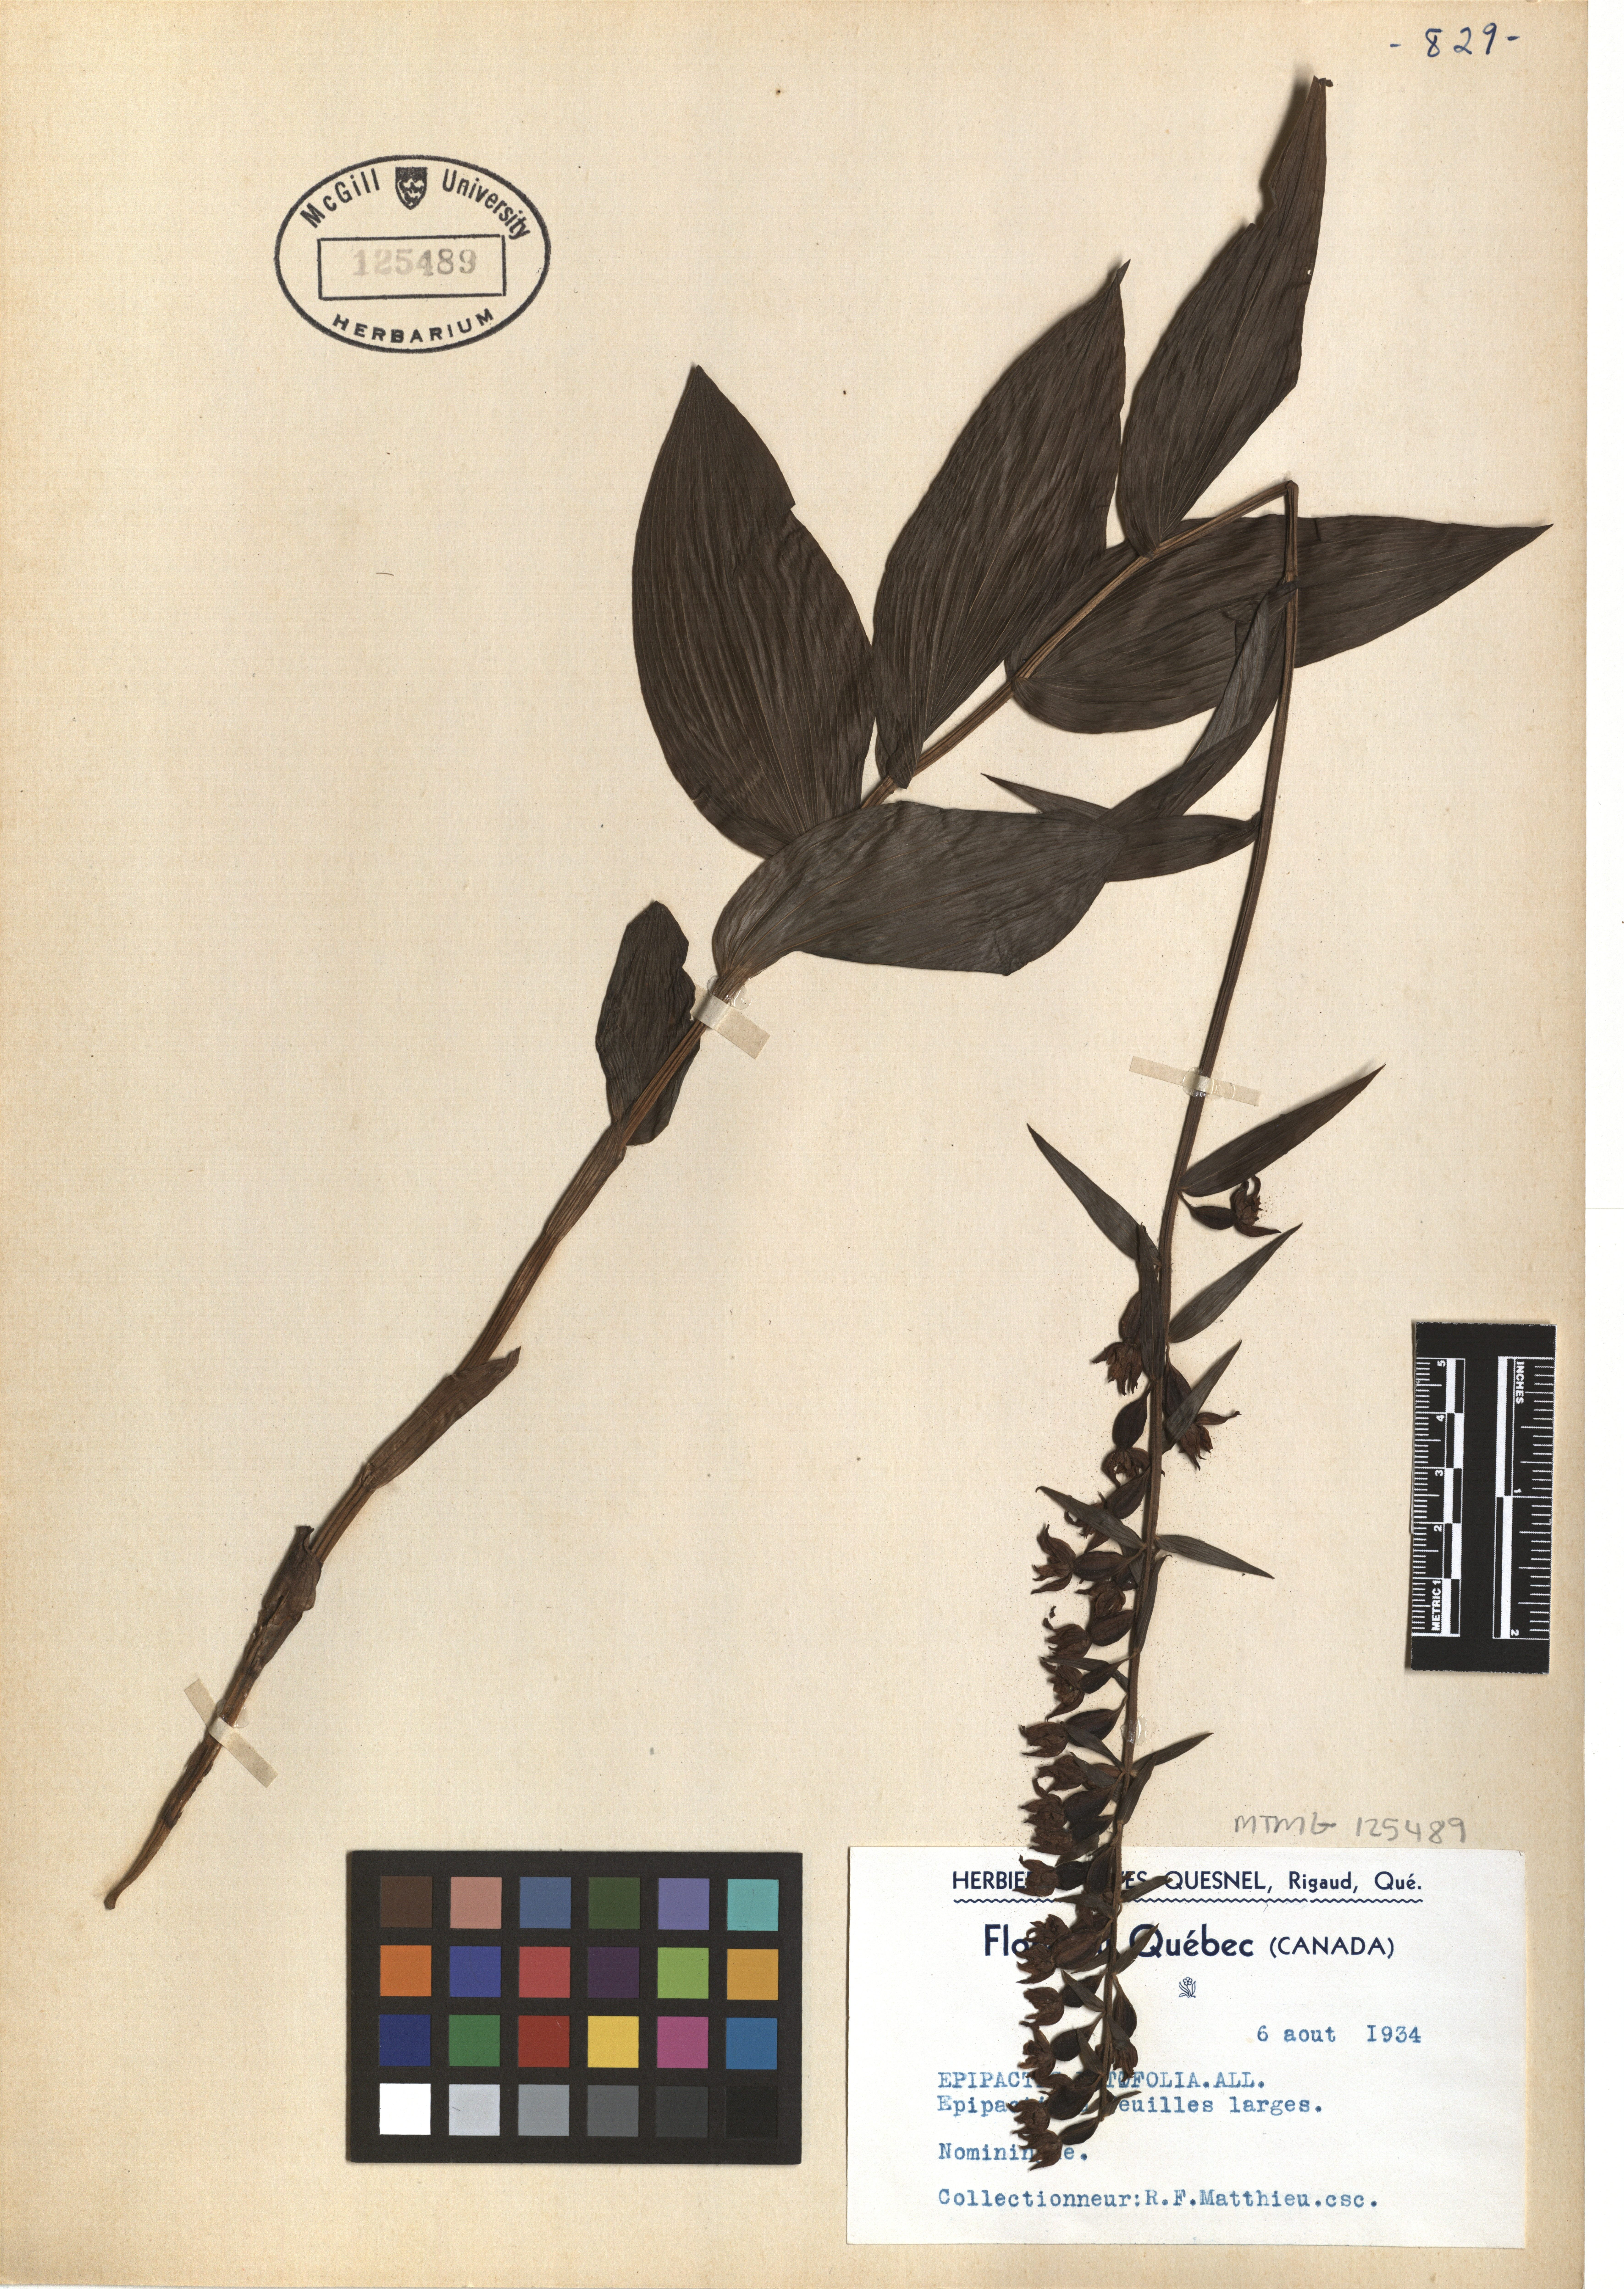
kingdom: Plantae
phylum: Tracheophyta
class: Liliopsida
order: Asparagales
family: Orchidaceae
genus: Epipactis
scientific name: Epipactis helleborine
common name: Broad-leaved helleborine
